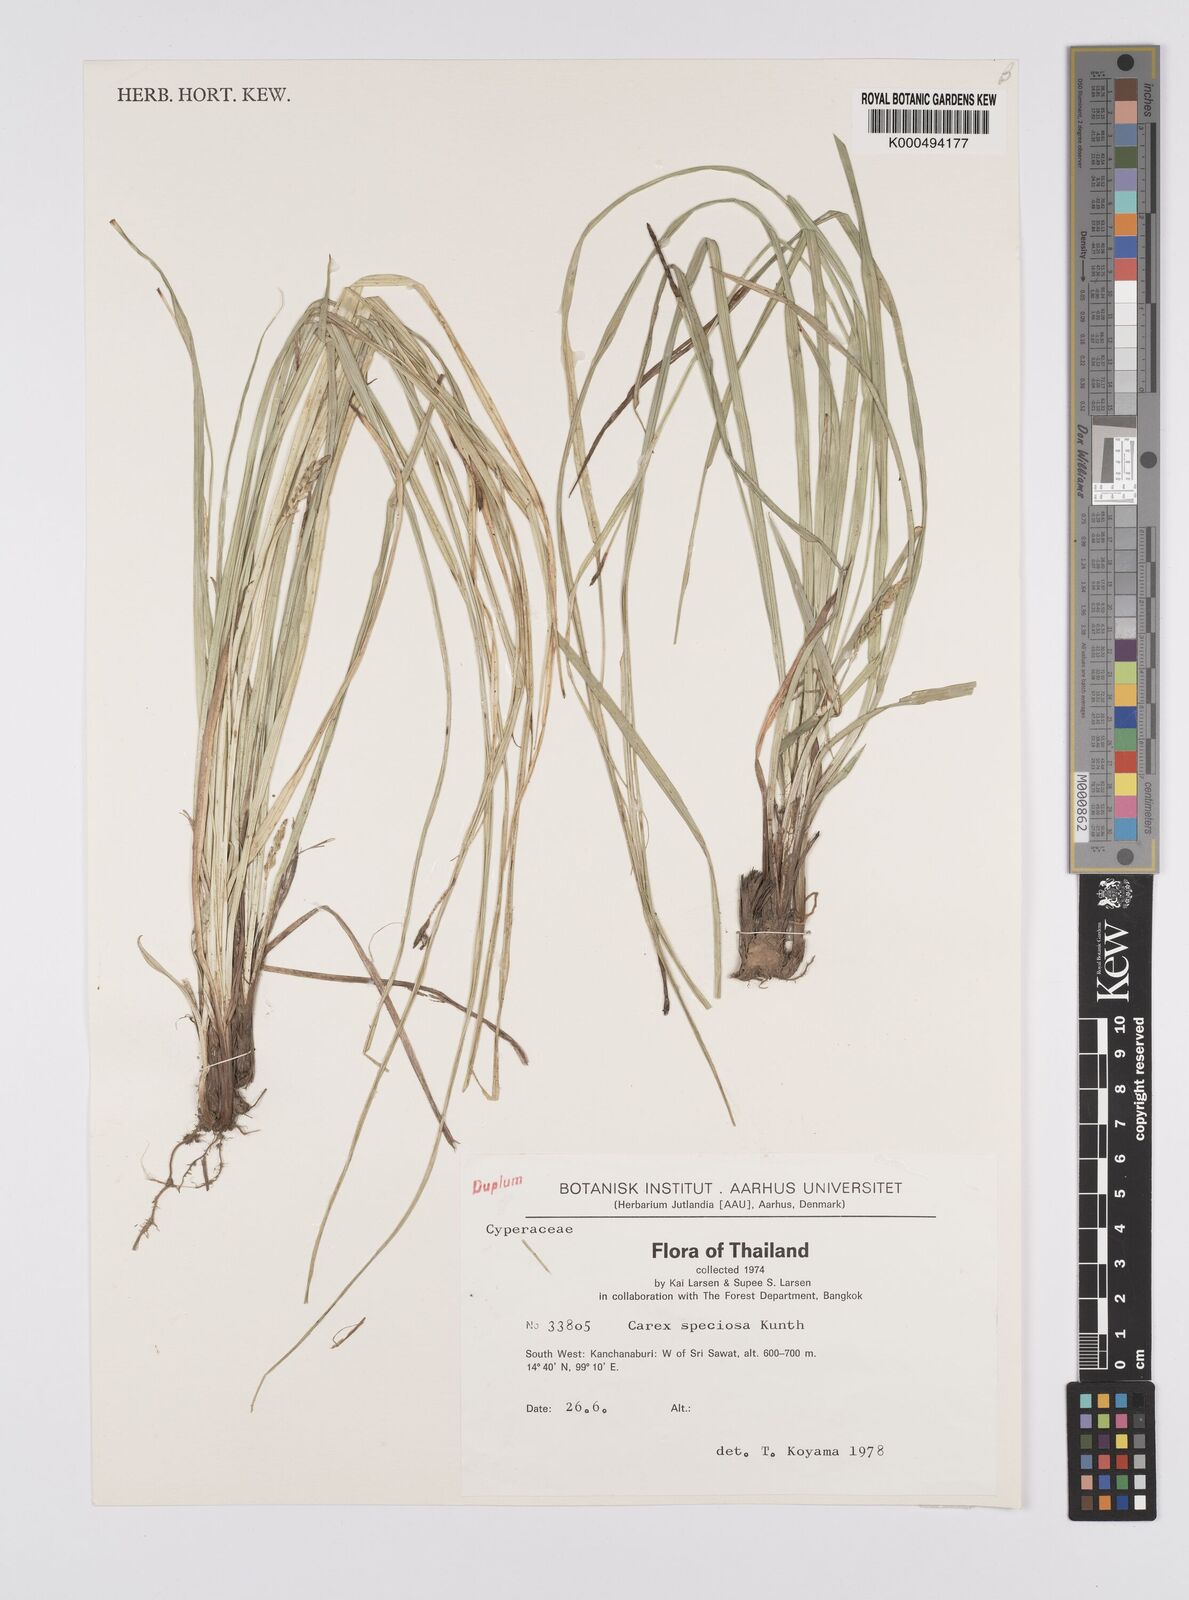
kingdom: Plantae
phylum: Tracheophyta
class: Liliopsida
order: Poales
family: Cyperaceae
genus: Carex
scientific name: Carex speciosa
